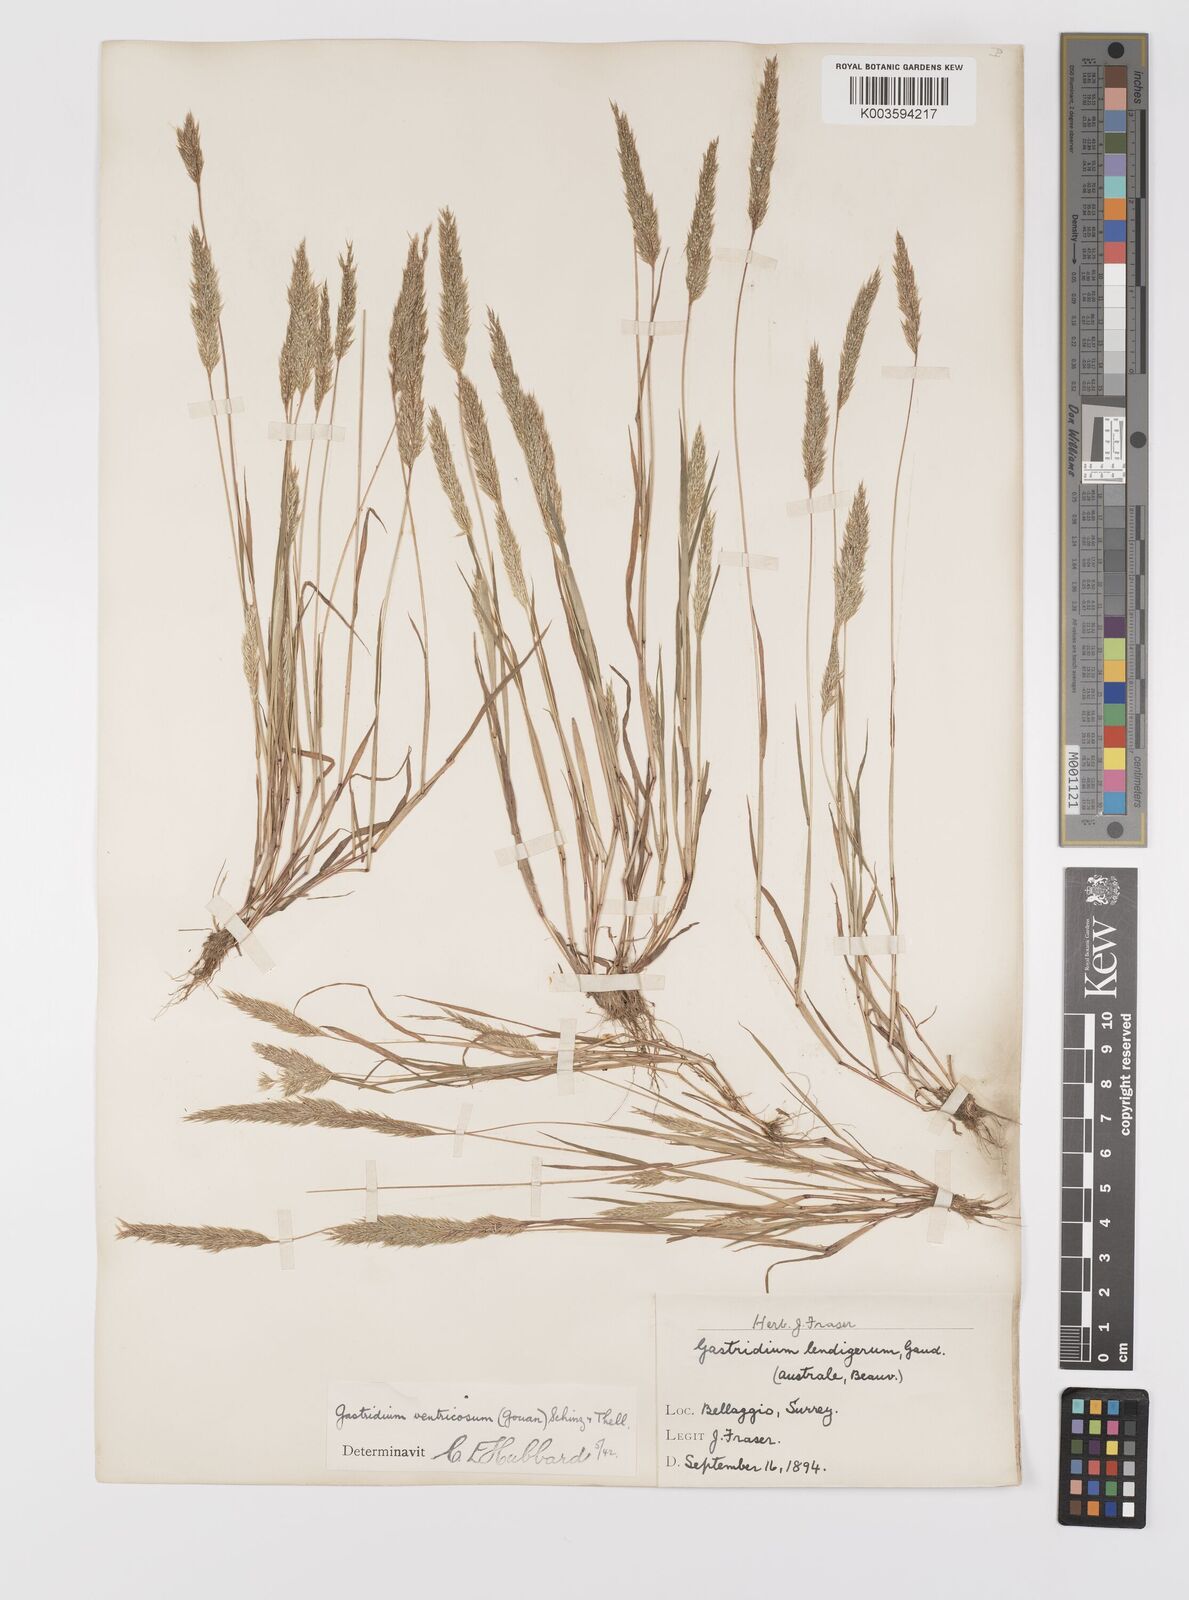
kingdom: Plantae
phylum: Tracheophyta
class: Liliopsida
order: Poales
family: Poaceae
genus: Gastridium
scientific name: Gastridium ventricosum
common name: Nit-grass
